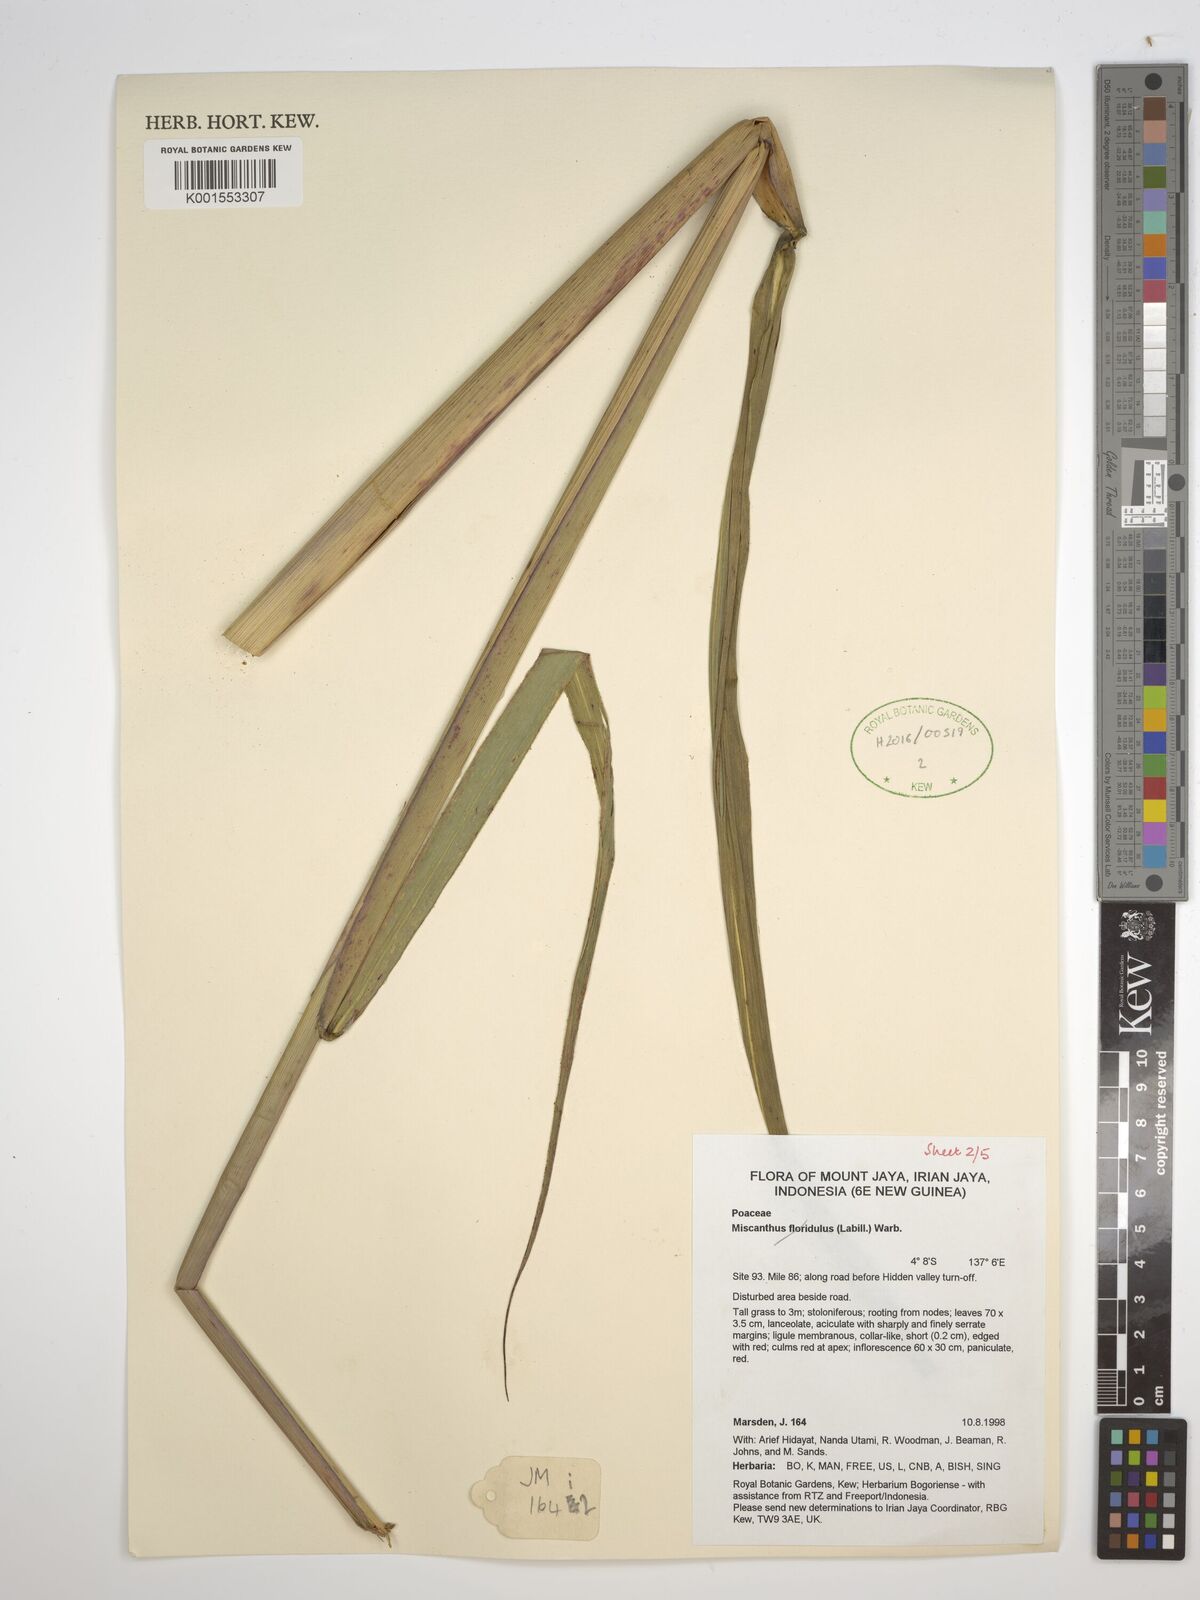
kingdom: Plantae
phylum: Tracheophyta
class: Liliopsida
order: Poales
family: Poaceae
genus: Saccharum
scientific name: Saccharum
